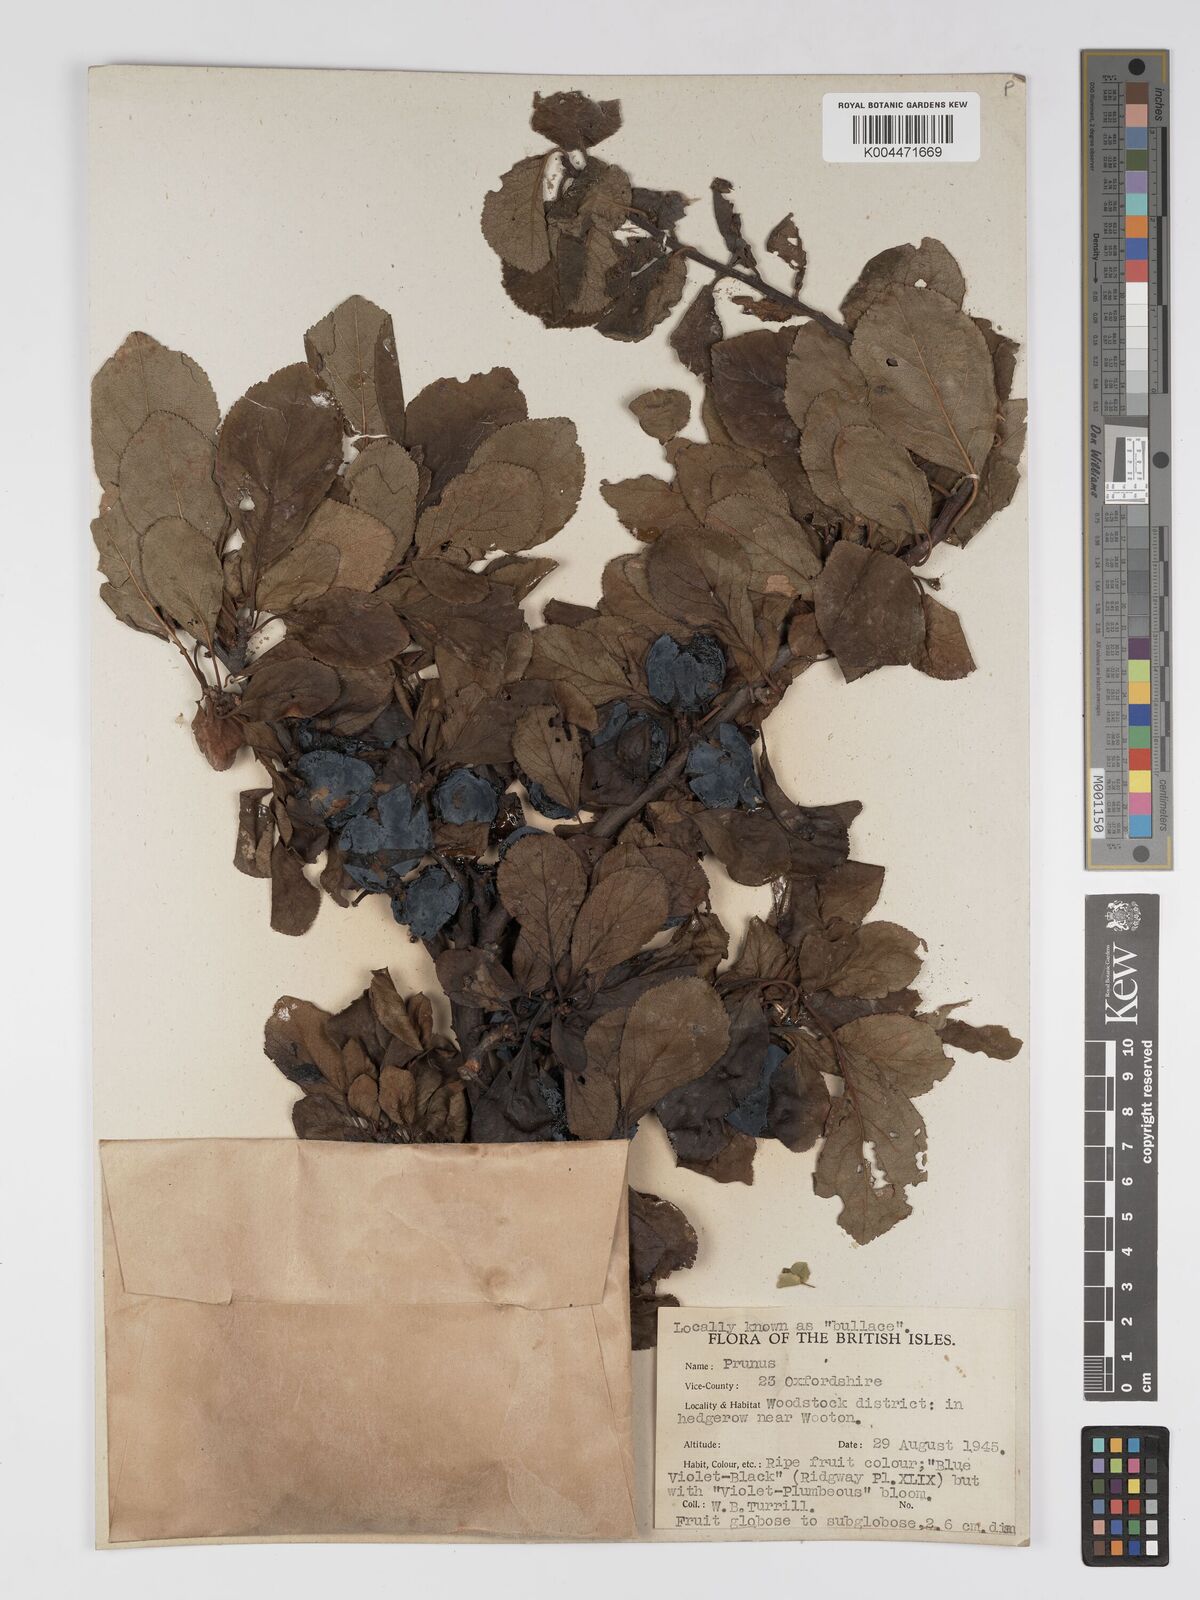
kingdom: Plantae
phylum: Tracheophyta
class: Magnoliopsida
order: Rosales
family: Rosaceae
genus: Prunus
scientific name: Prunus
